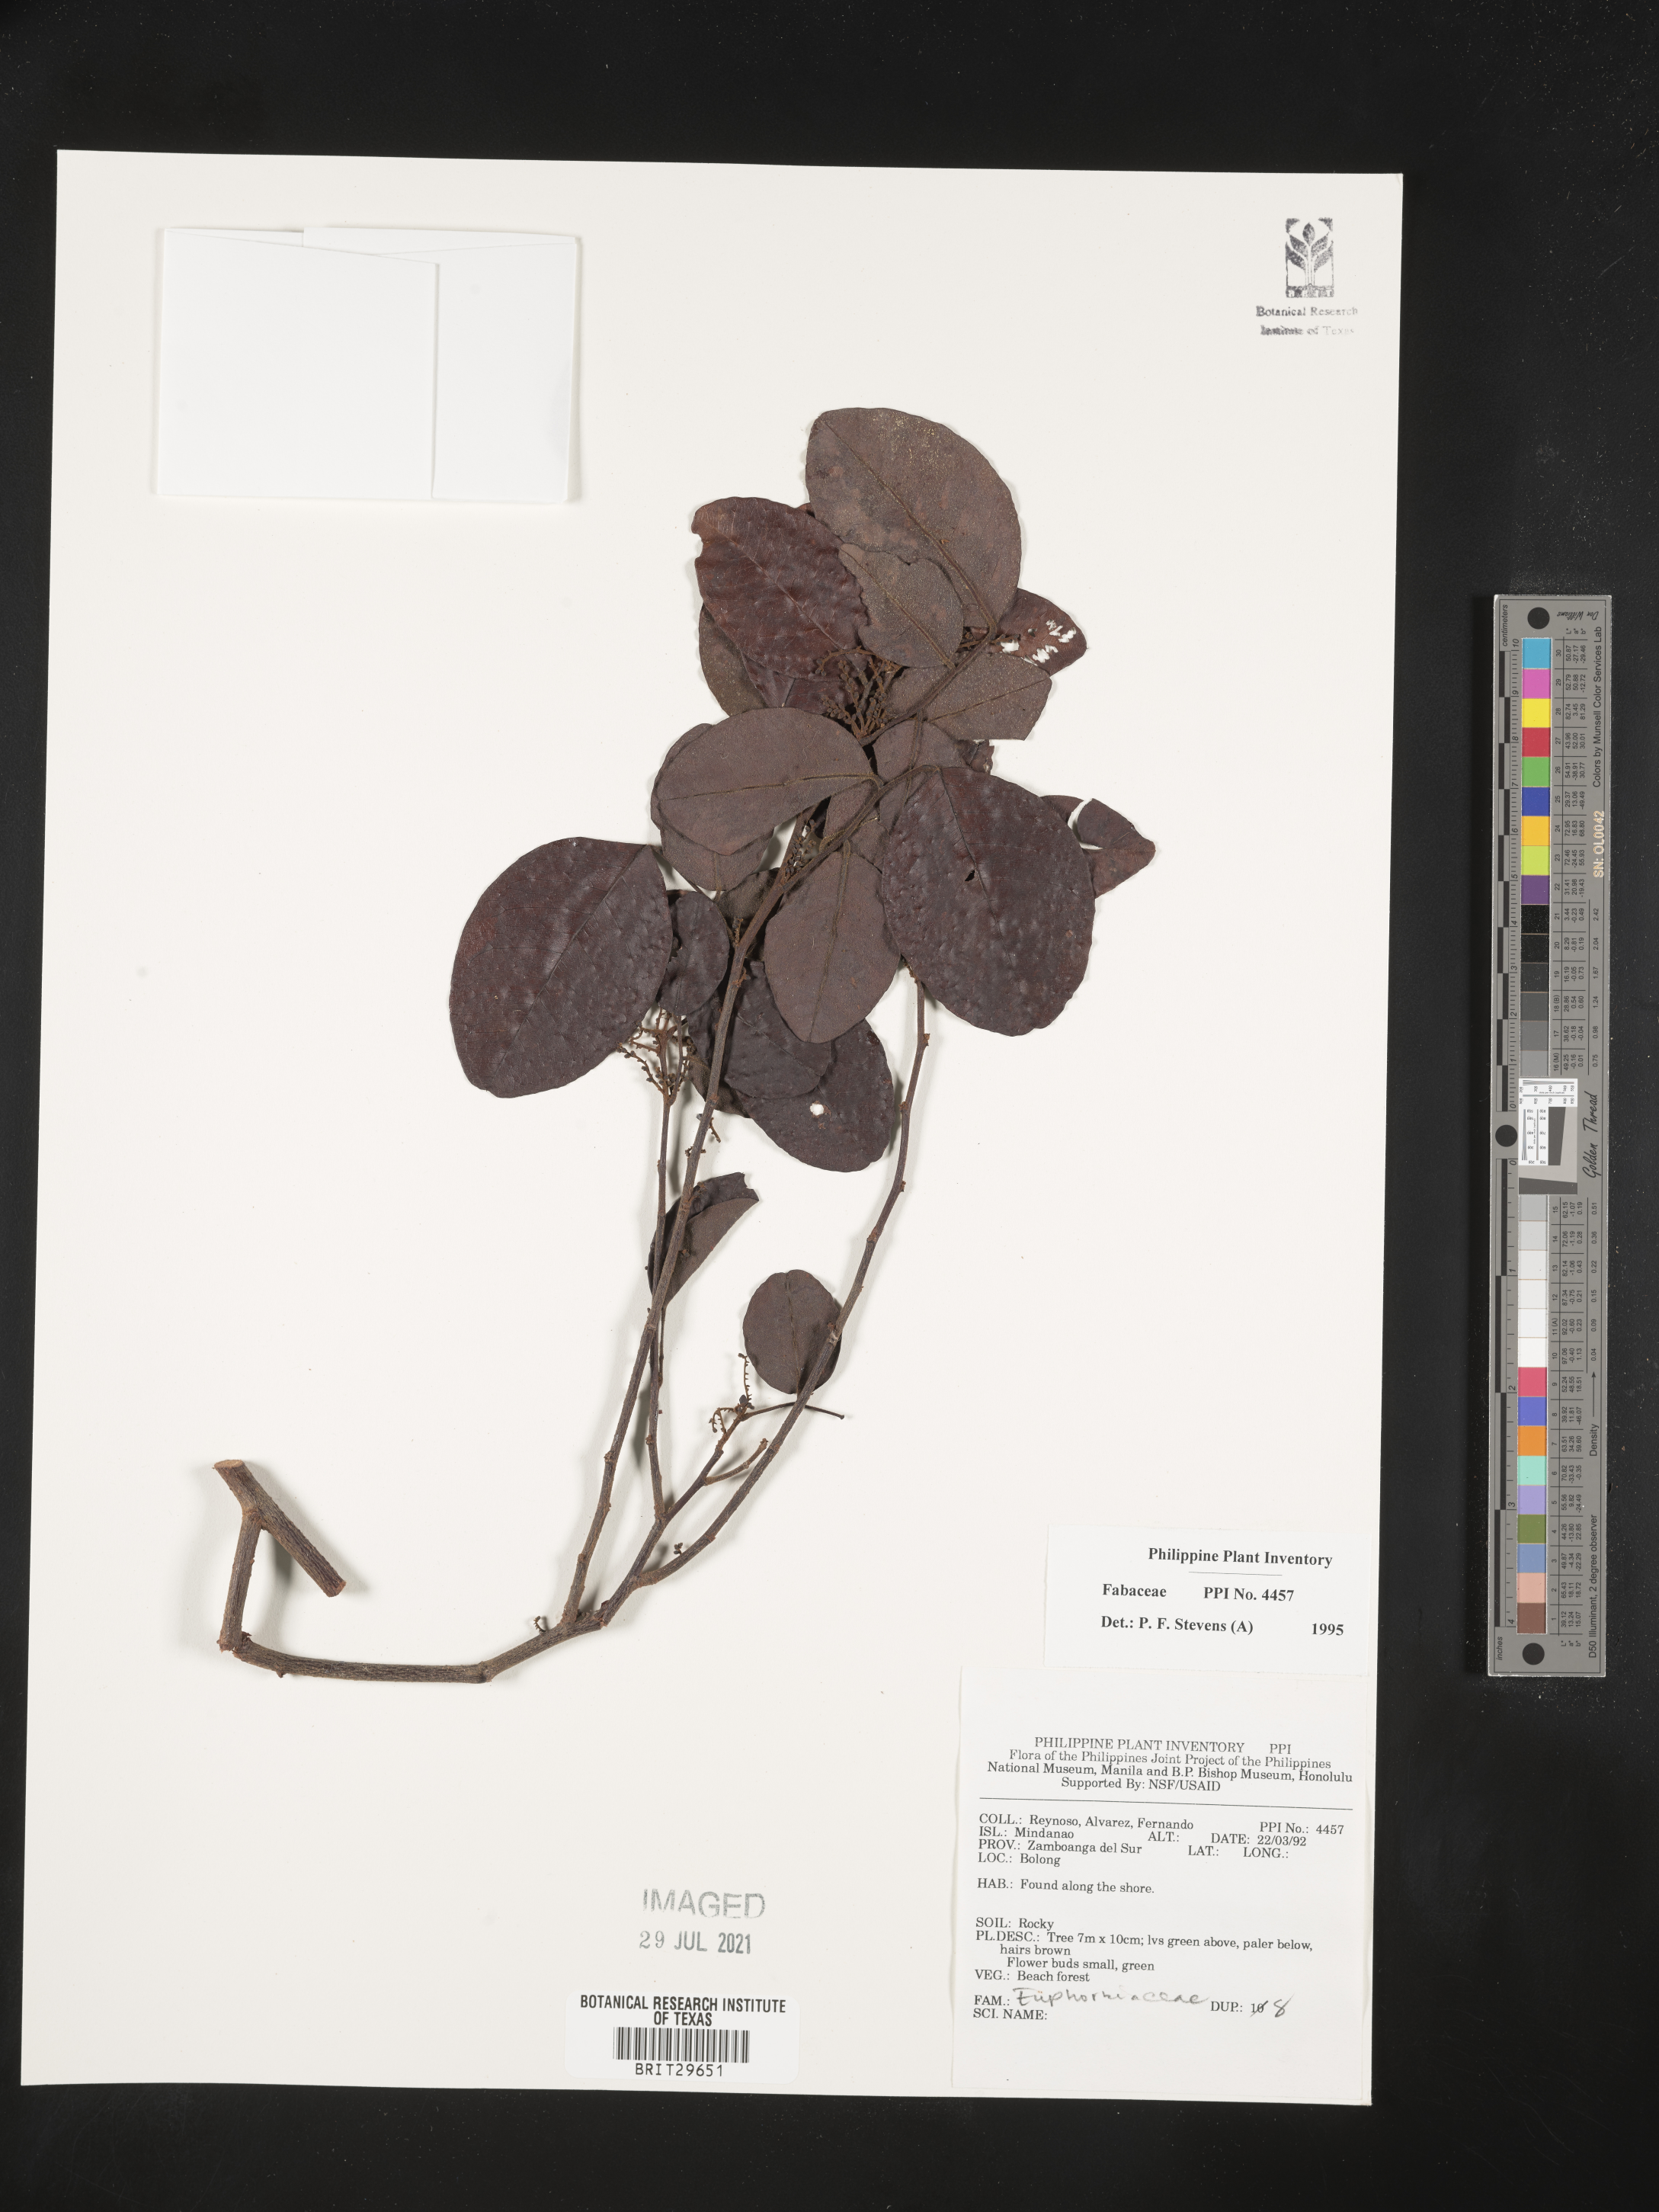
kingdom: Plantae
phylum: Tracheophyta
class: Magnoliopsida
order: Fabales
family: Fabaceae
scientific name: Fabaceae
